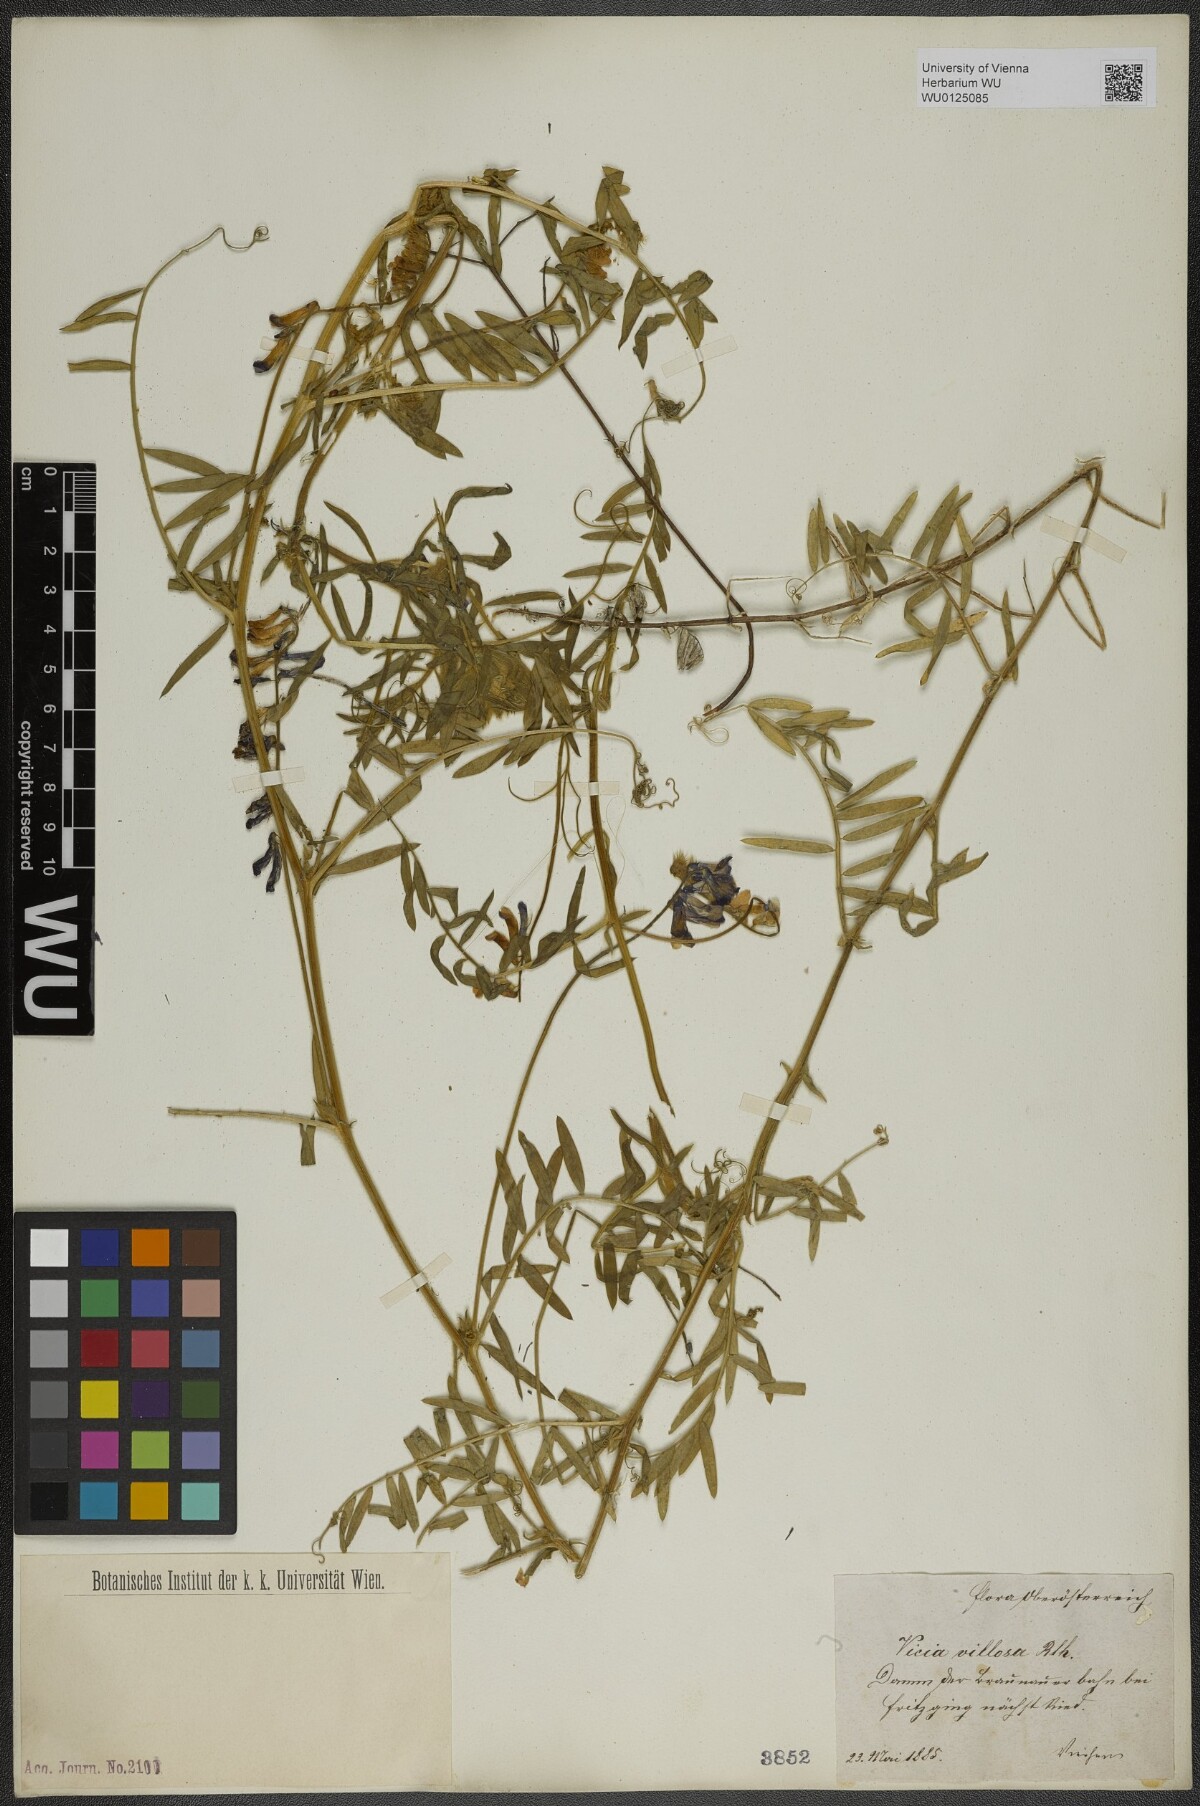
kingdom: Plantae
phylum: Tracheophyta
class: Magnoliopsida
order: Fabales
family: Fabaceae
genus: Vicia
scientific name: Vicia villosa
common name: Fodder vetch
